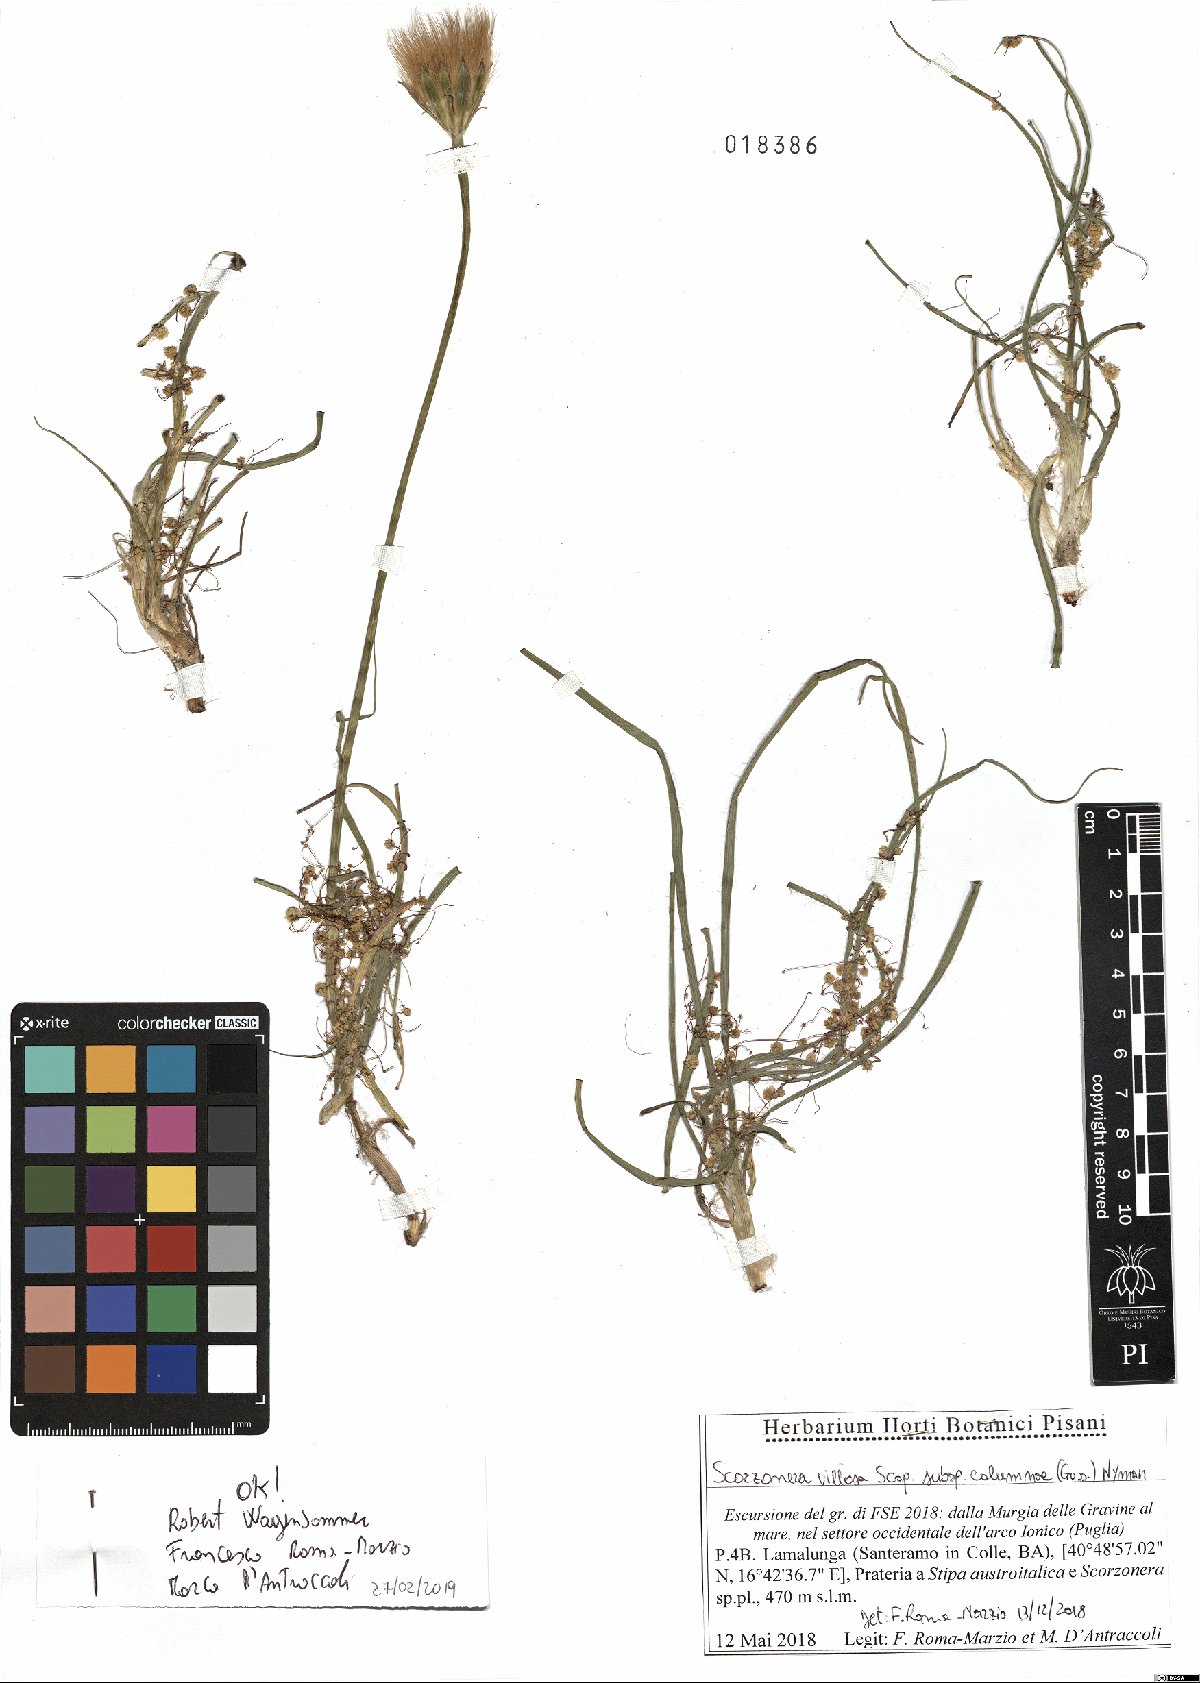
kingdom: Plantae
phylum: Tracheophyta
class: Magnoliopsida
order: Asterales
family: Asteraceae
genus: Gelasia
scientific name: Gelasia villosa
